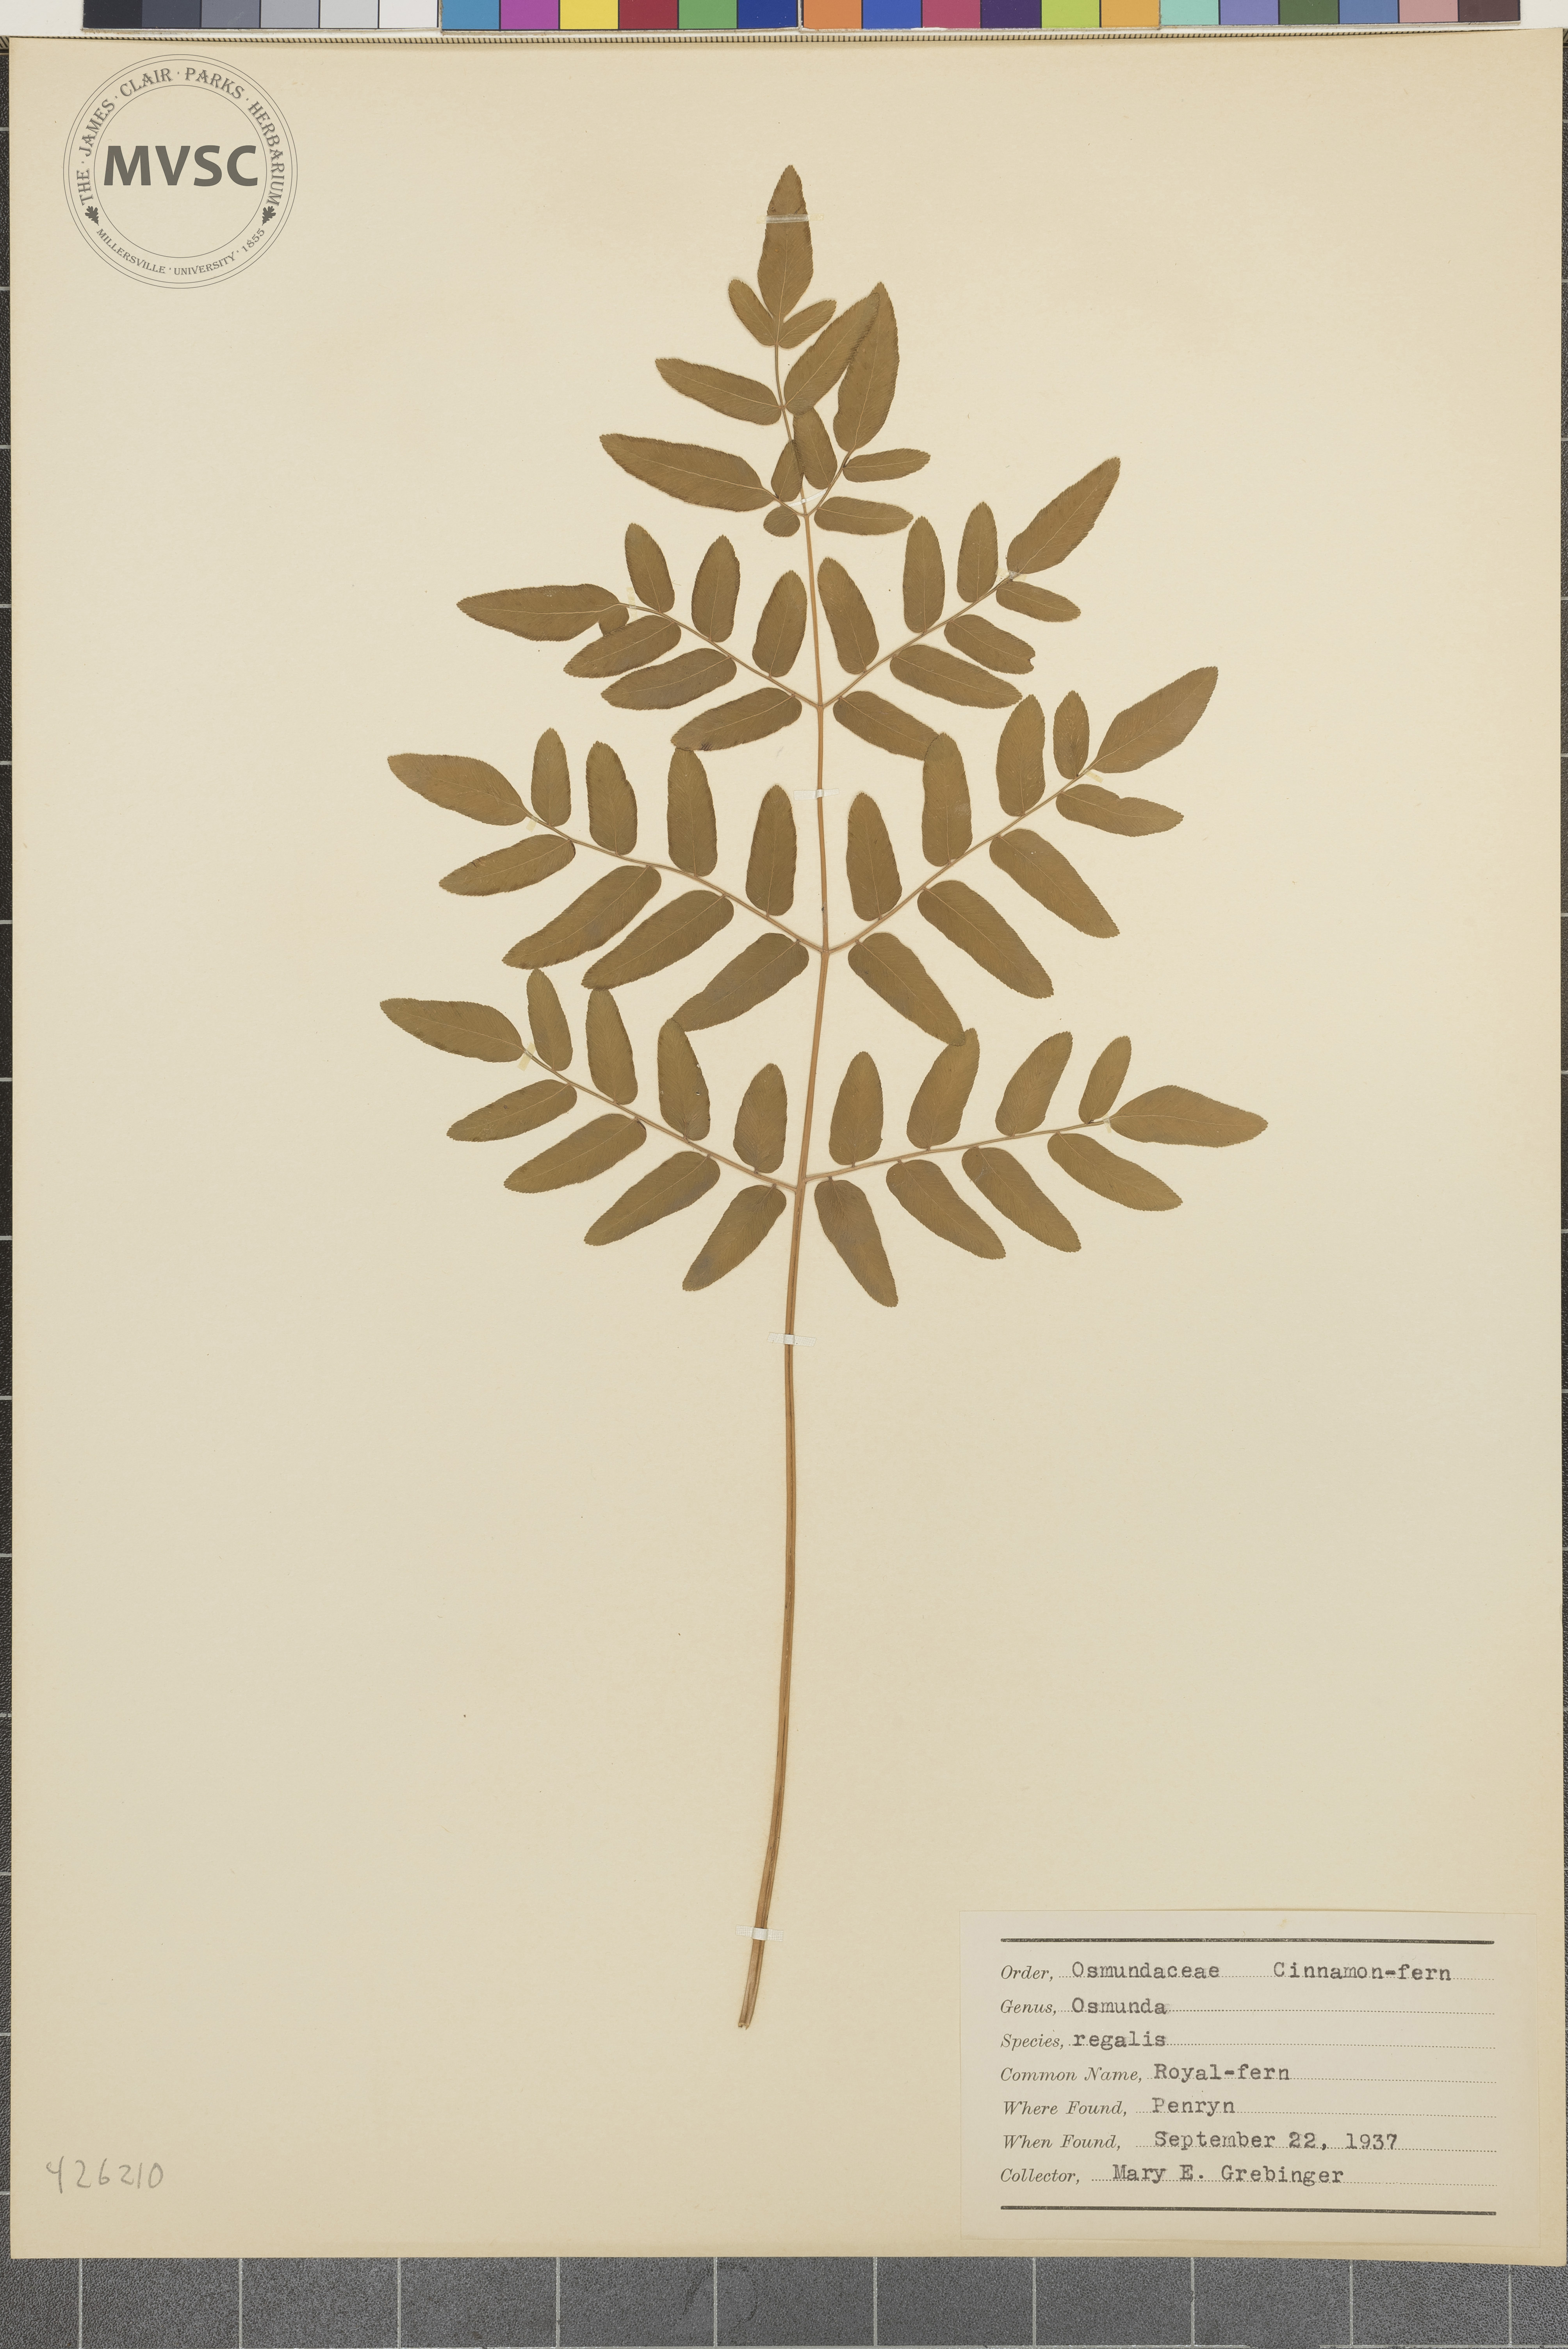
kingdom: Plantae
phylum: Tracheophyta
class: Polypodiopsida
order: Osmundales
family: Osmundaceae
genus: Osmunda
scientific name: Osmunda regalis
